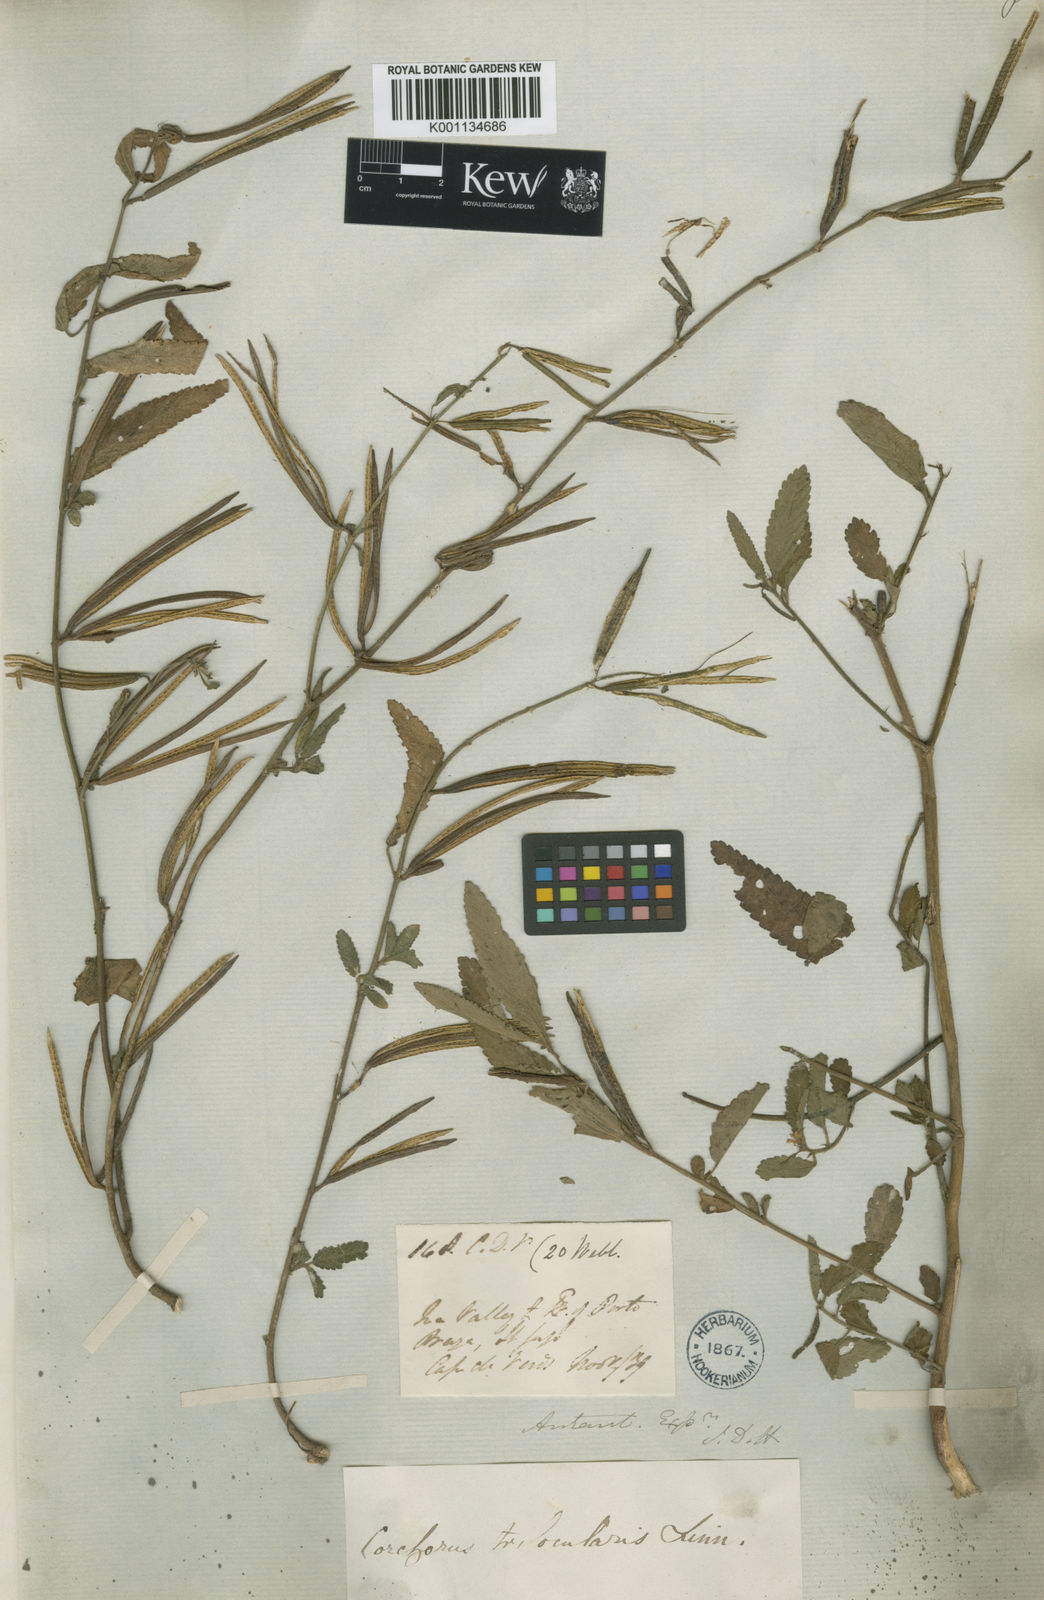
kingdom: Plantae
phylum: Tracheophyta
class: Magnoliopsida
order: Malvales
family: Malvaceae
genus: Corchorus
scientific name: Corchorus trilocularis
